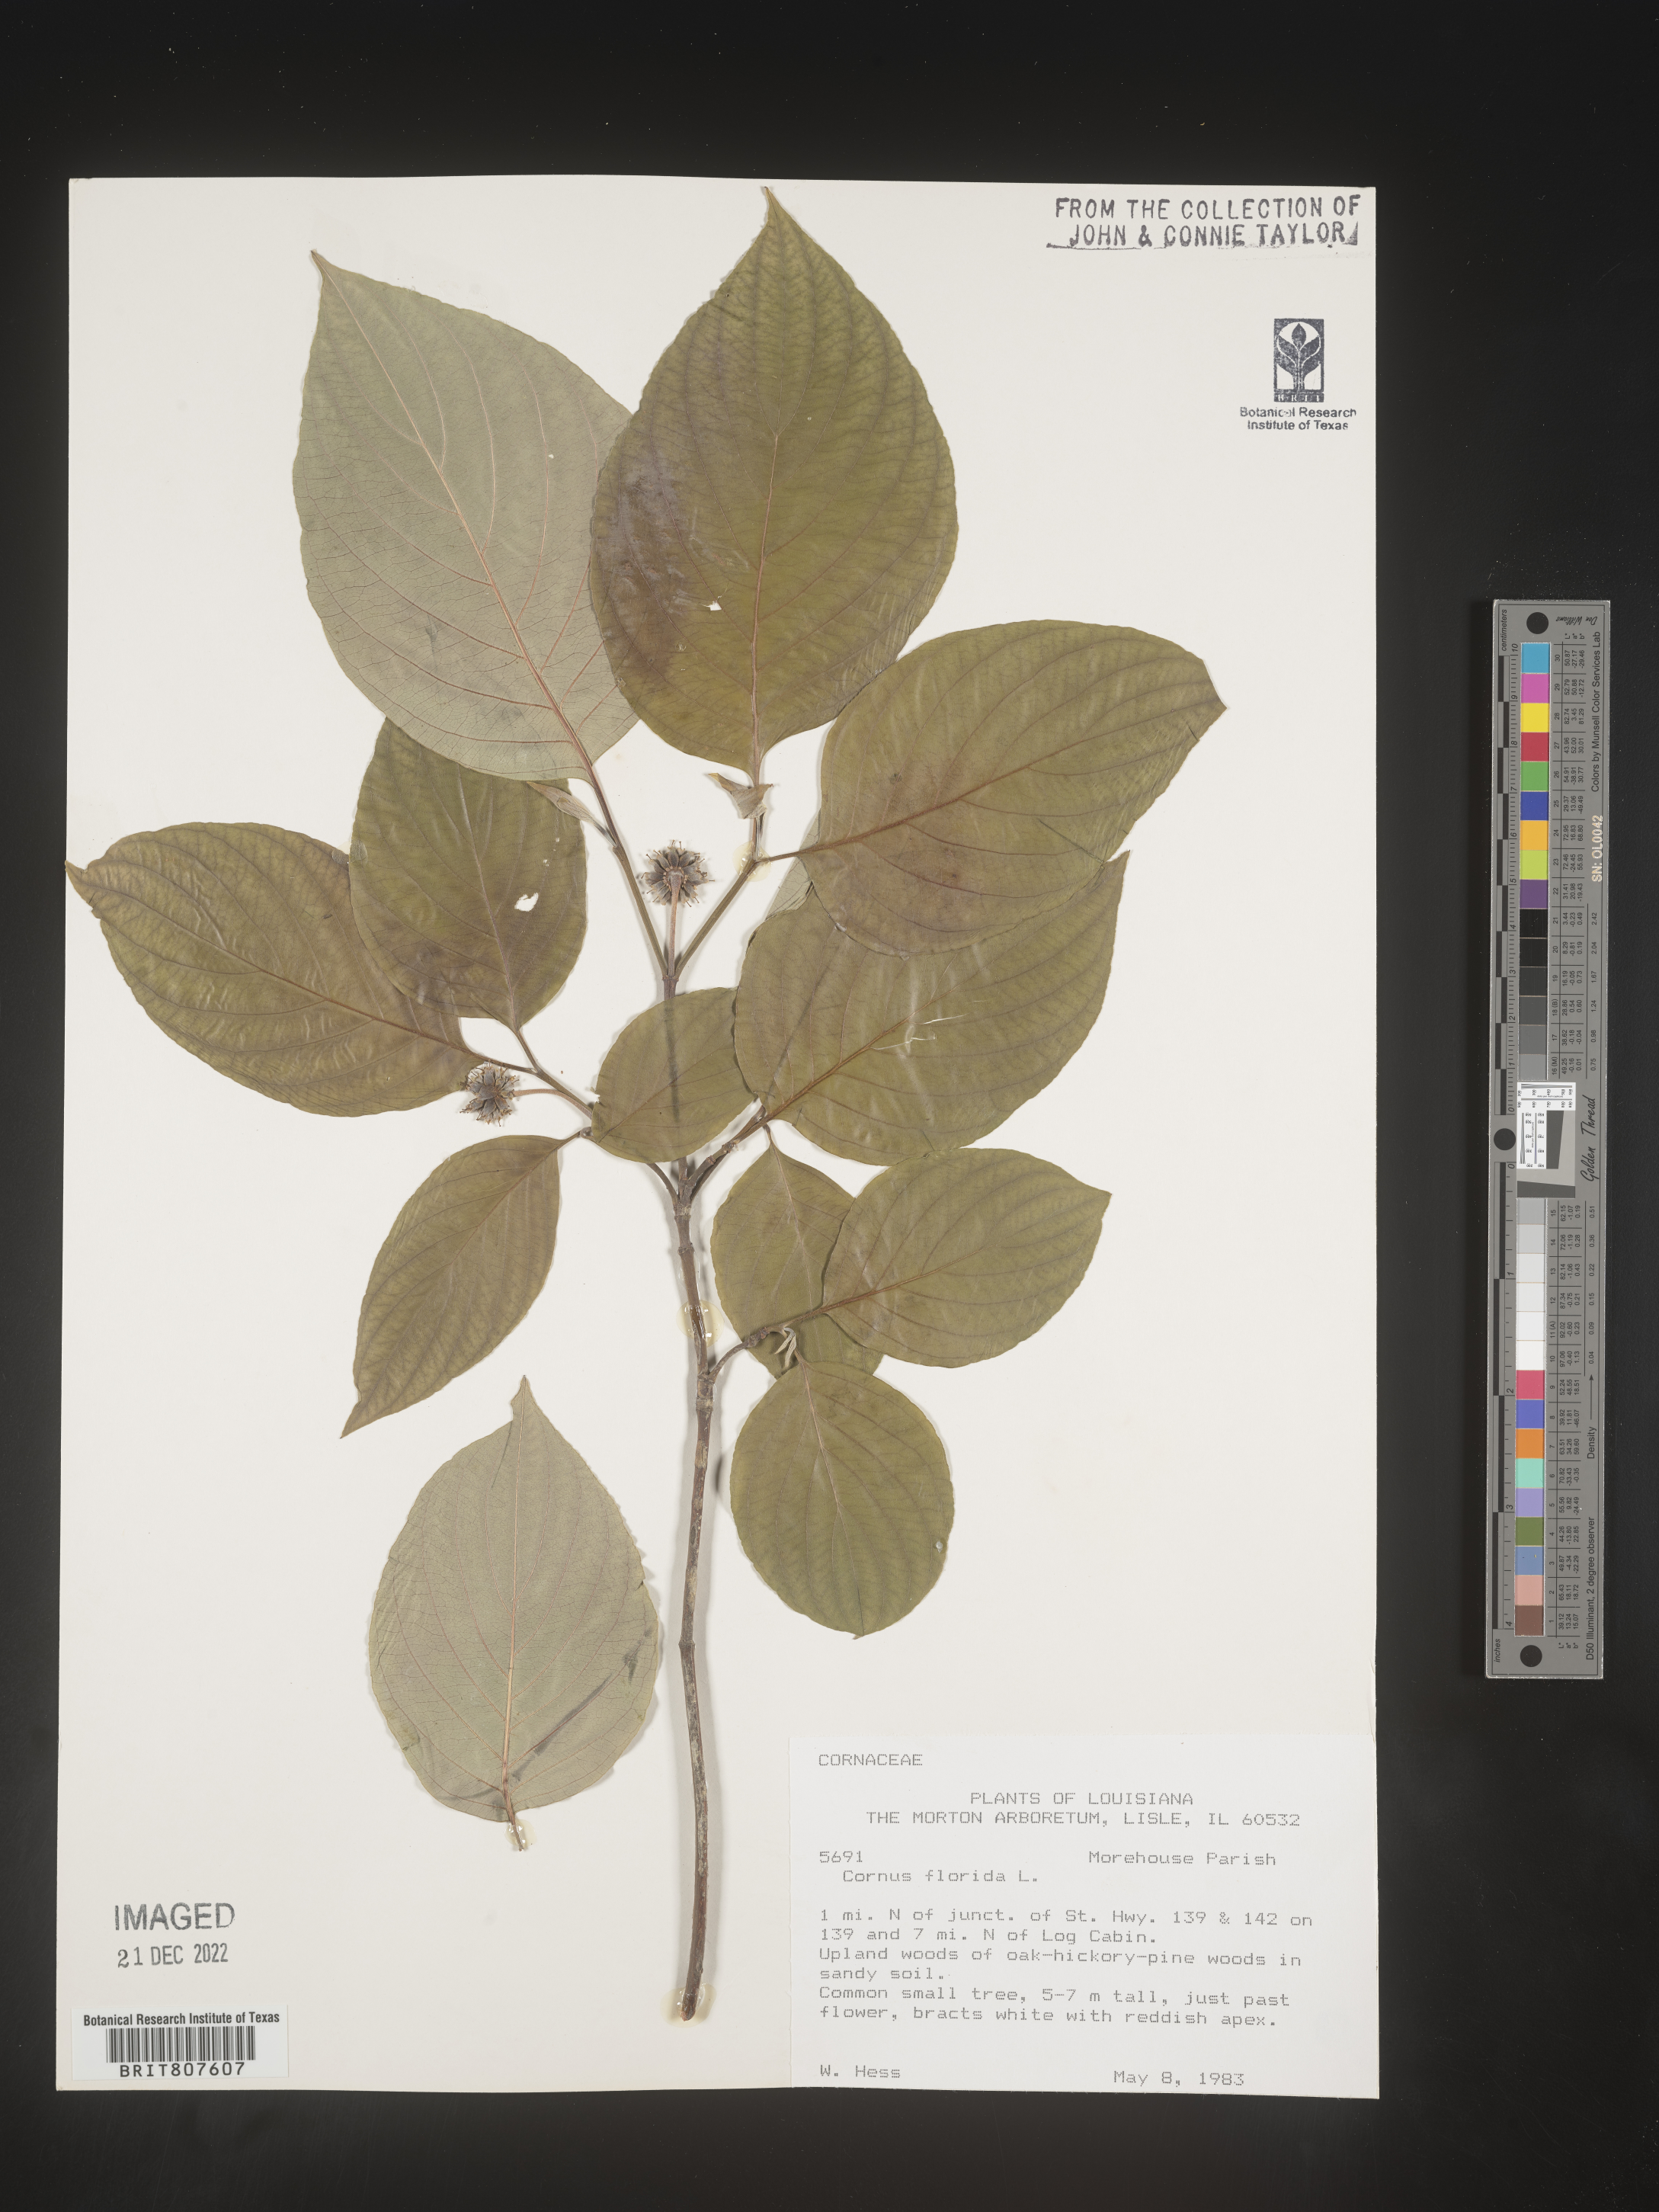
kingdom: Plantae
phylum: Tracheophyta
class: Magnoliopsida
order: Cornales
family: Cornaceae
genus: Cornus
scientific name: Cornus florida
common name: Flowering dogwood
